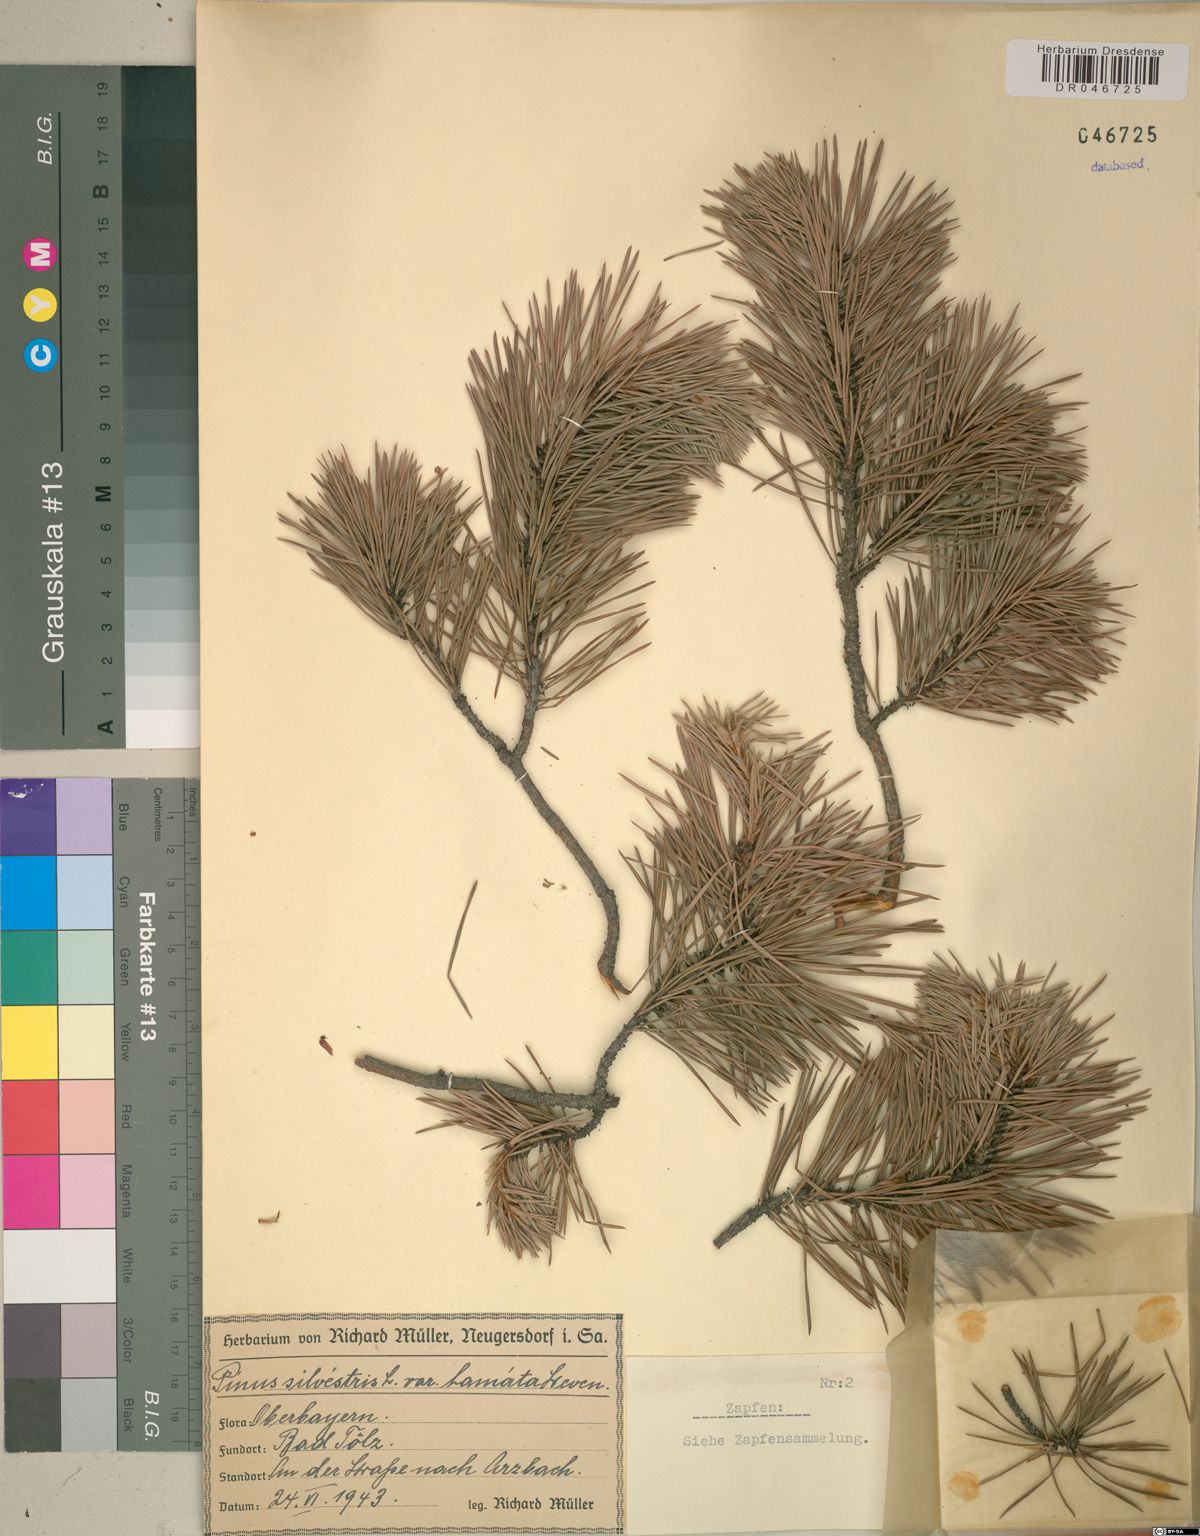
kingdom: Plantae
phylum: Tracheophyta
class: Pinopsida
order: Pinales
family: Pinaceae
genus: Pinus
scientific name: Pinus sylvestris
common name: Scots pine
